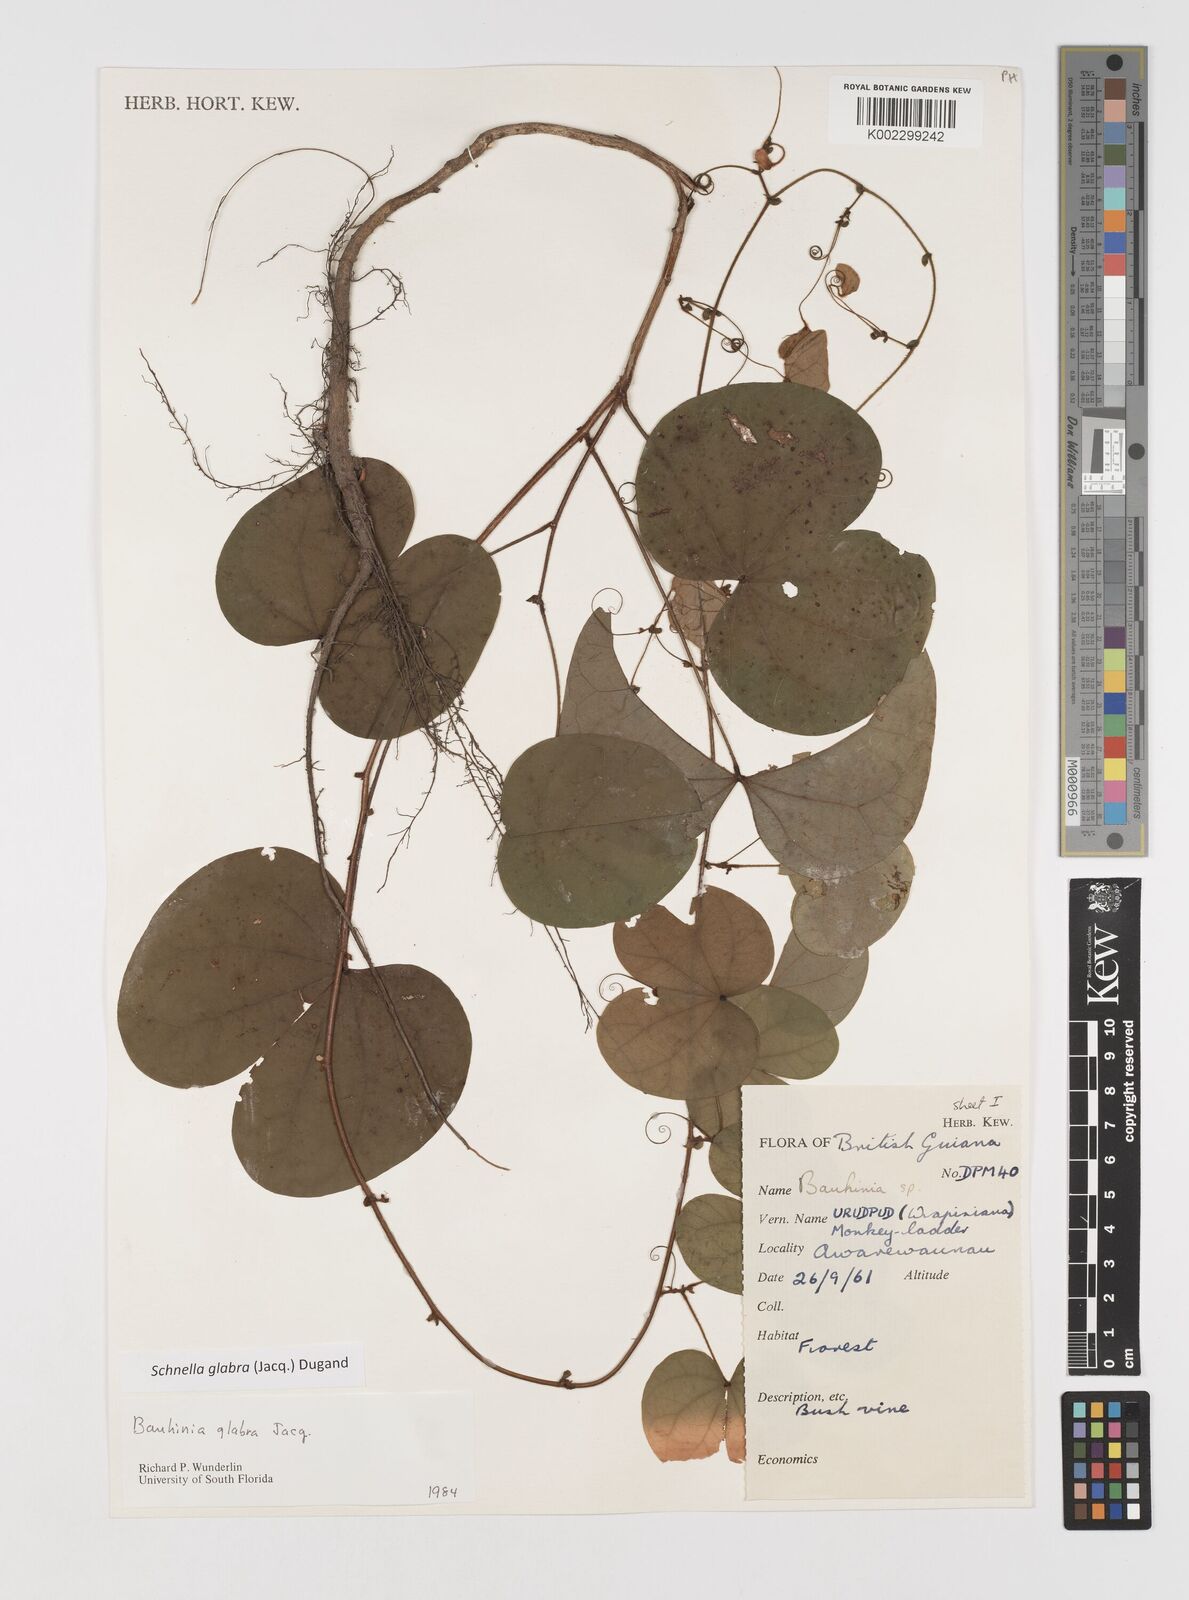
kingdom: Plantae
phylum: Tracheophyta
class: Magnoliopsida
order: Fabales
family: Fabaceae
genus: Schnella
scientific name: Schnella glabra
